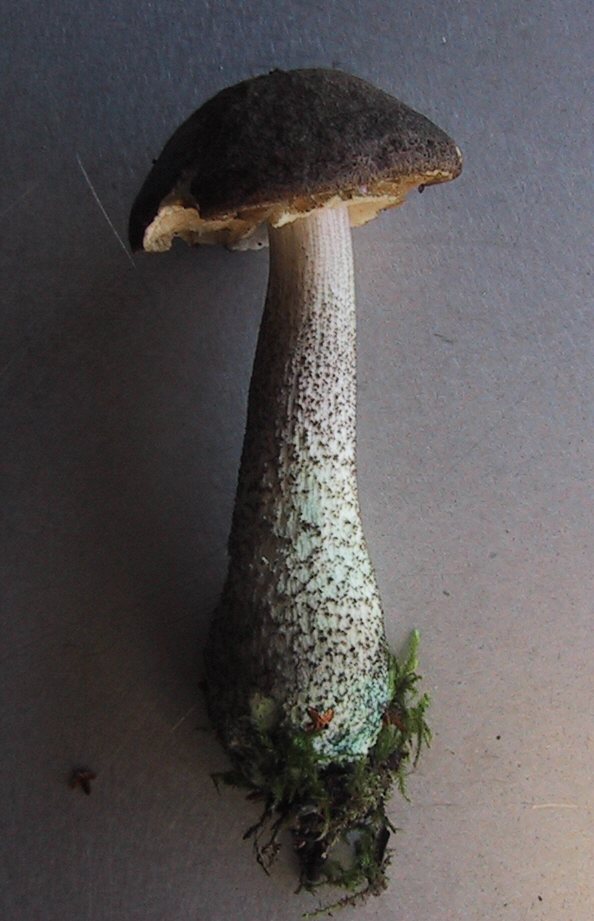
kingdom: Fungi
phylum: Basidiomycota
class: Agaricomycetes
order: Boletales
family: Boletaceae
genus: Leccinum
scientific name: Leccinum variicolor
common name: flammet skælrørhat
